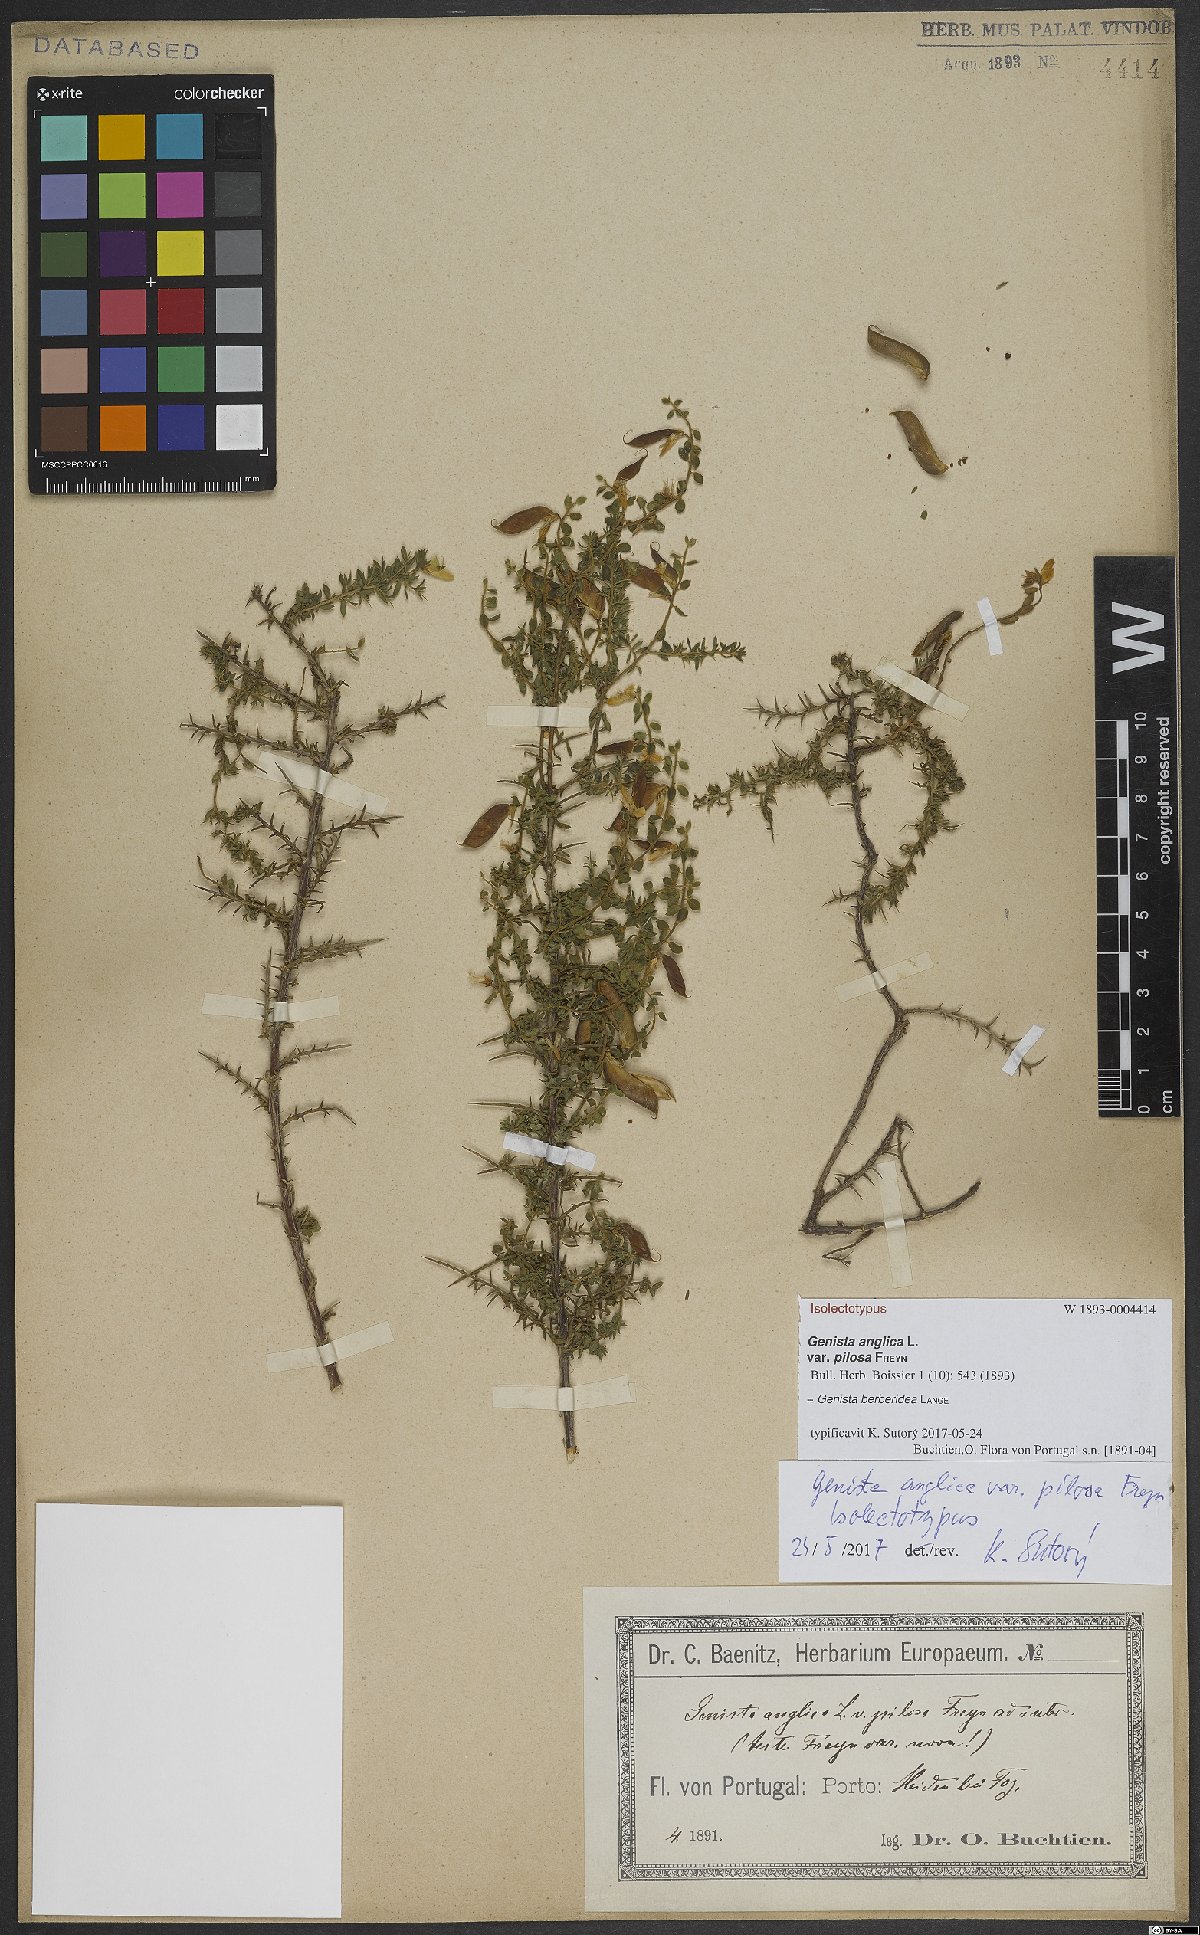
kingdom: Plantae
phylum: Tracheophyta
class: Magnoliopsida
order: Fabales
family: Fabaceae
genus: Genista
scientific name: Genista berberidea
